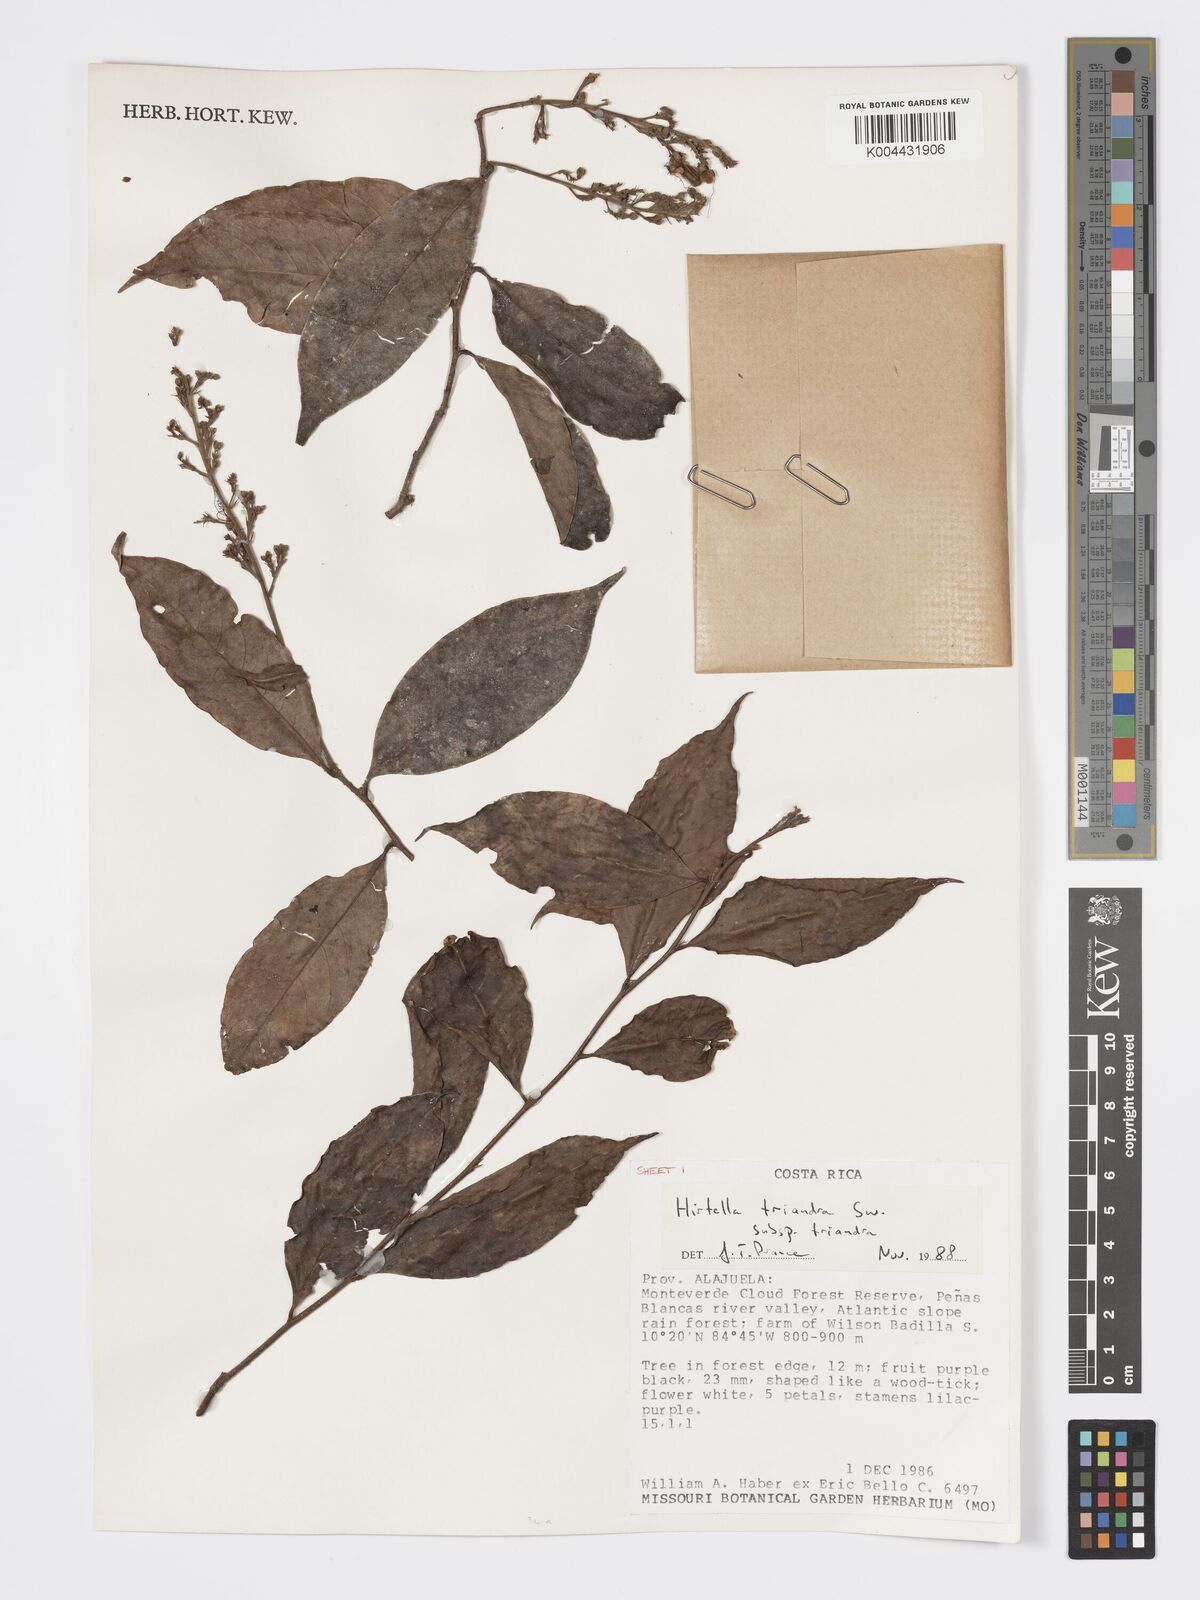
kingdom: Plantae
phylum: Tracheophyta
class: Magnoliopsida
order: Malpighiales
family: Chrysobalanaceae
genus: Hirtella
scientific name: Hirtella triandra
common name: Hairy plum
